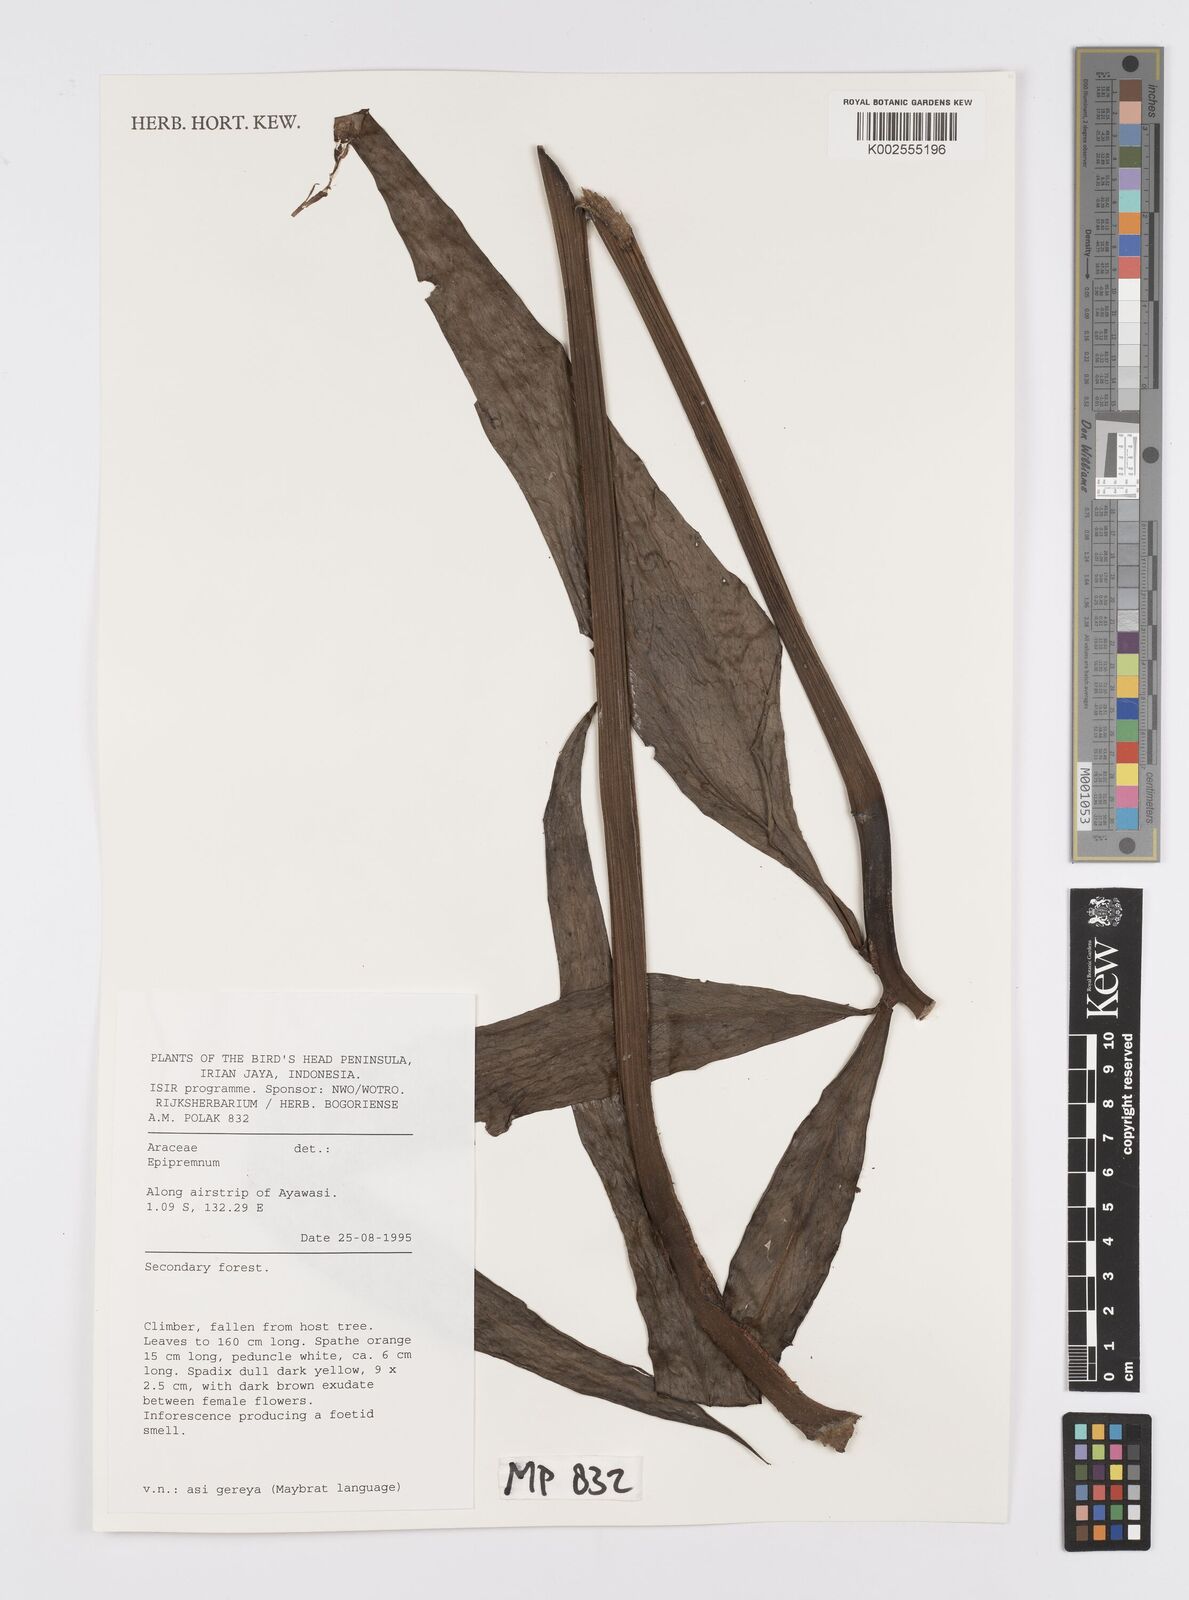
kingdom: Plantae
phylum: Tracheophyta
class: Liliopsida
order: Alismatales
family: Araceae
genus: Amydrium
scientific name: Amydrium zippelianum
